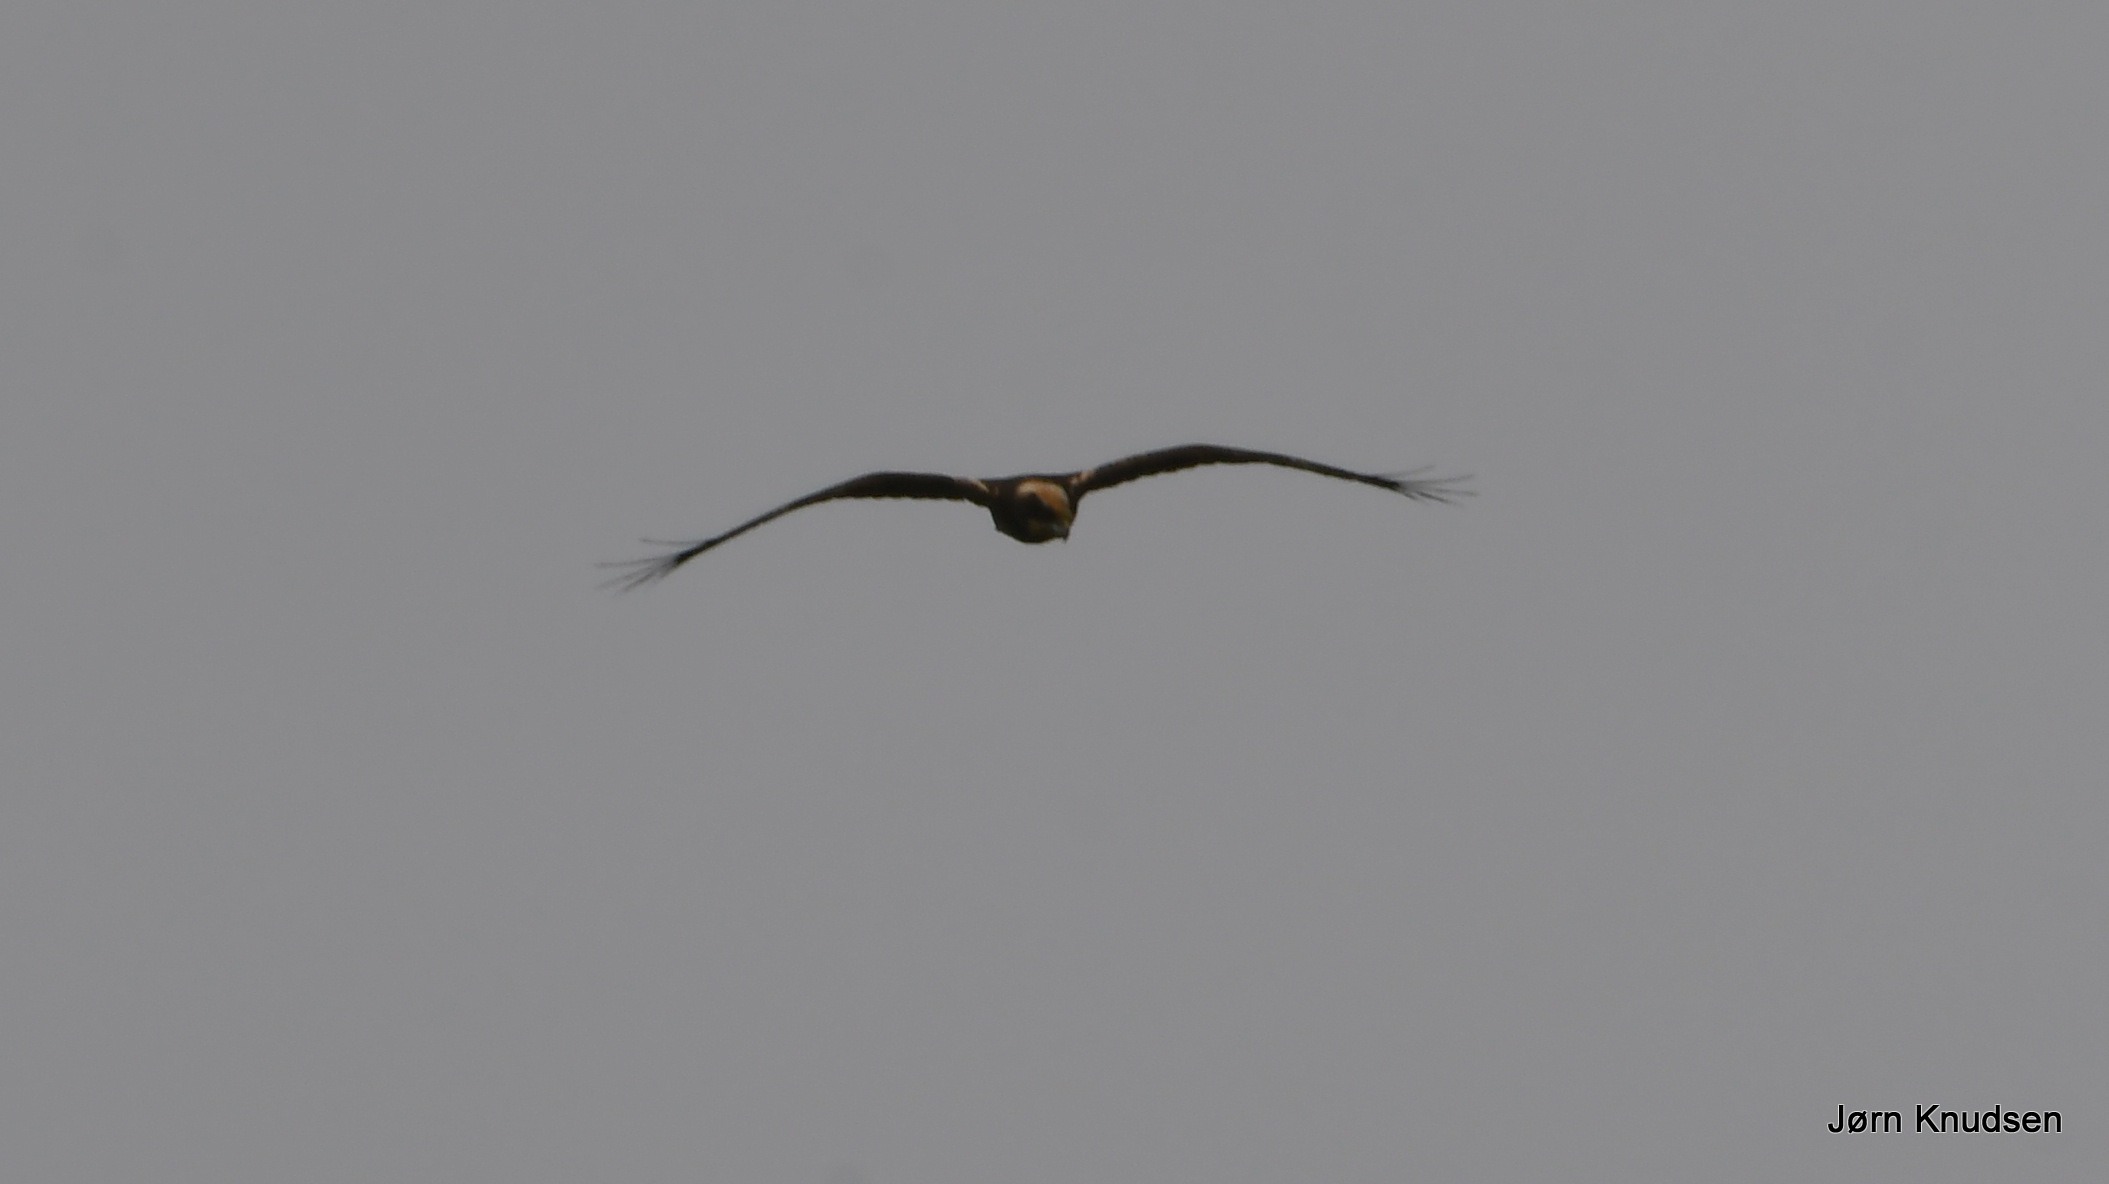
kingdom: Animalia
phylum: Chordata
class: Aves
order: Accipitriformes
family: Accipitridae
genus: Circus
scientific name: Circus aeruginosus
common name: Rørhøg
